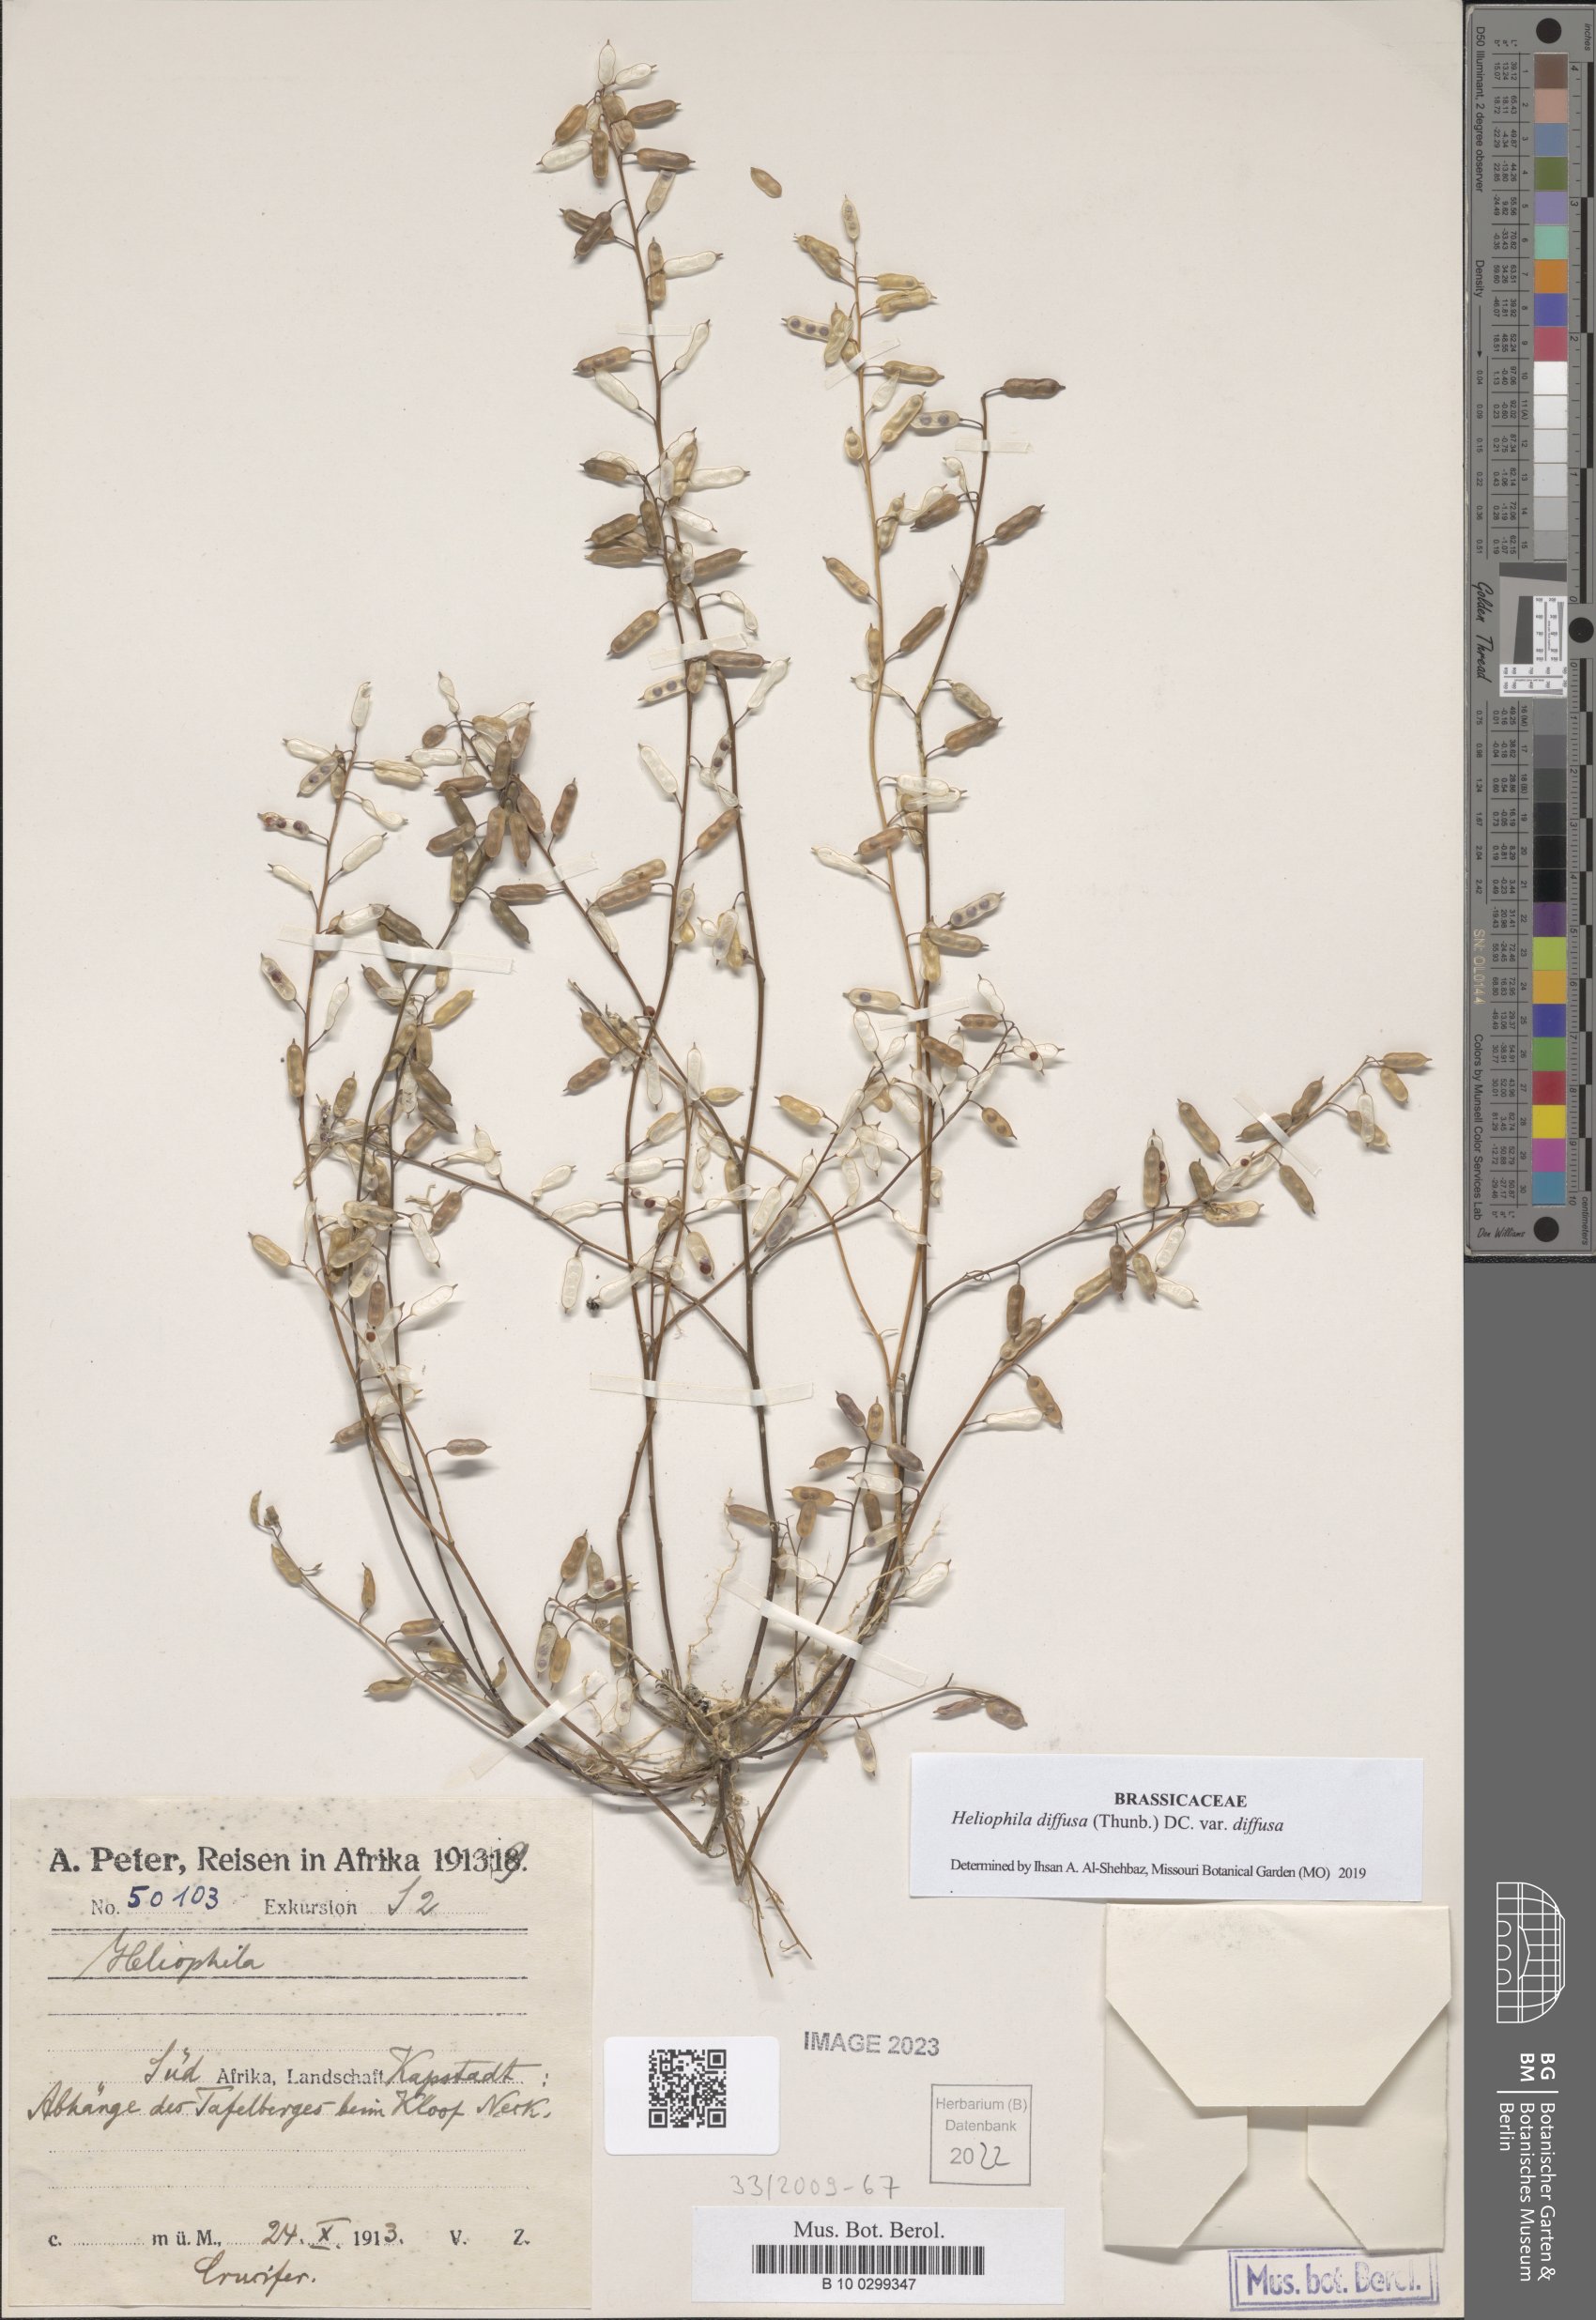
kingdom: Plantae
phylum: Tracheophyta
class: Magnoliopsida
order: Brassicales
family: Brassicaceae
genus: Heliophila
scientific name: Heliophila diffusa
